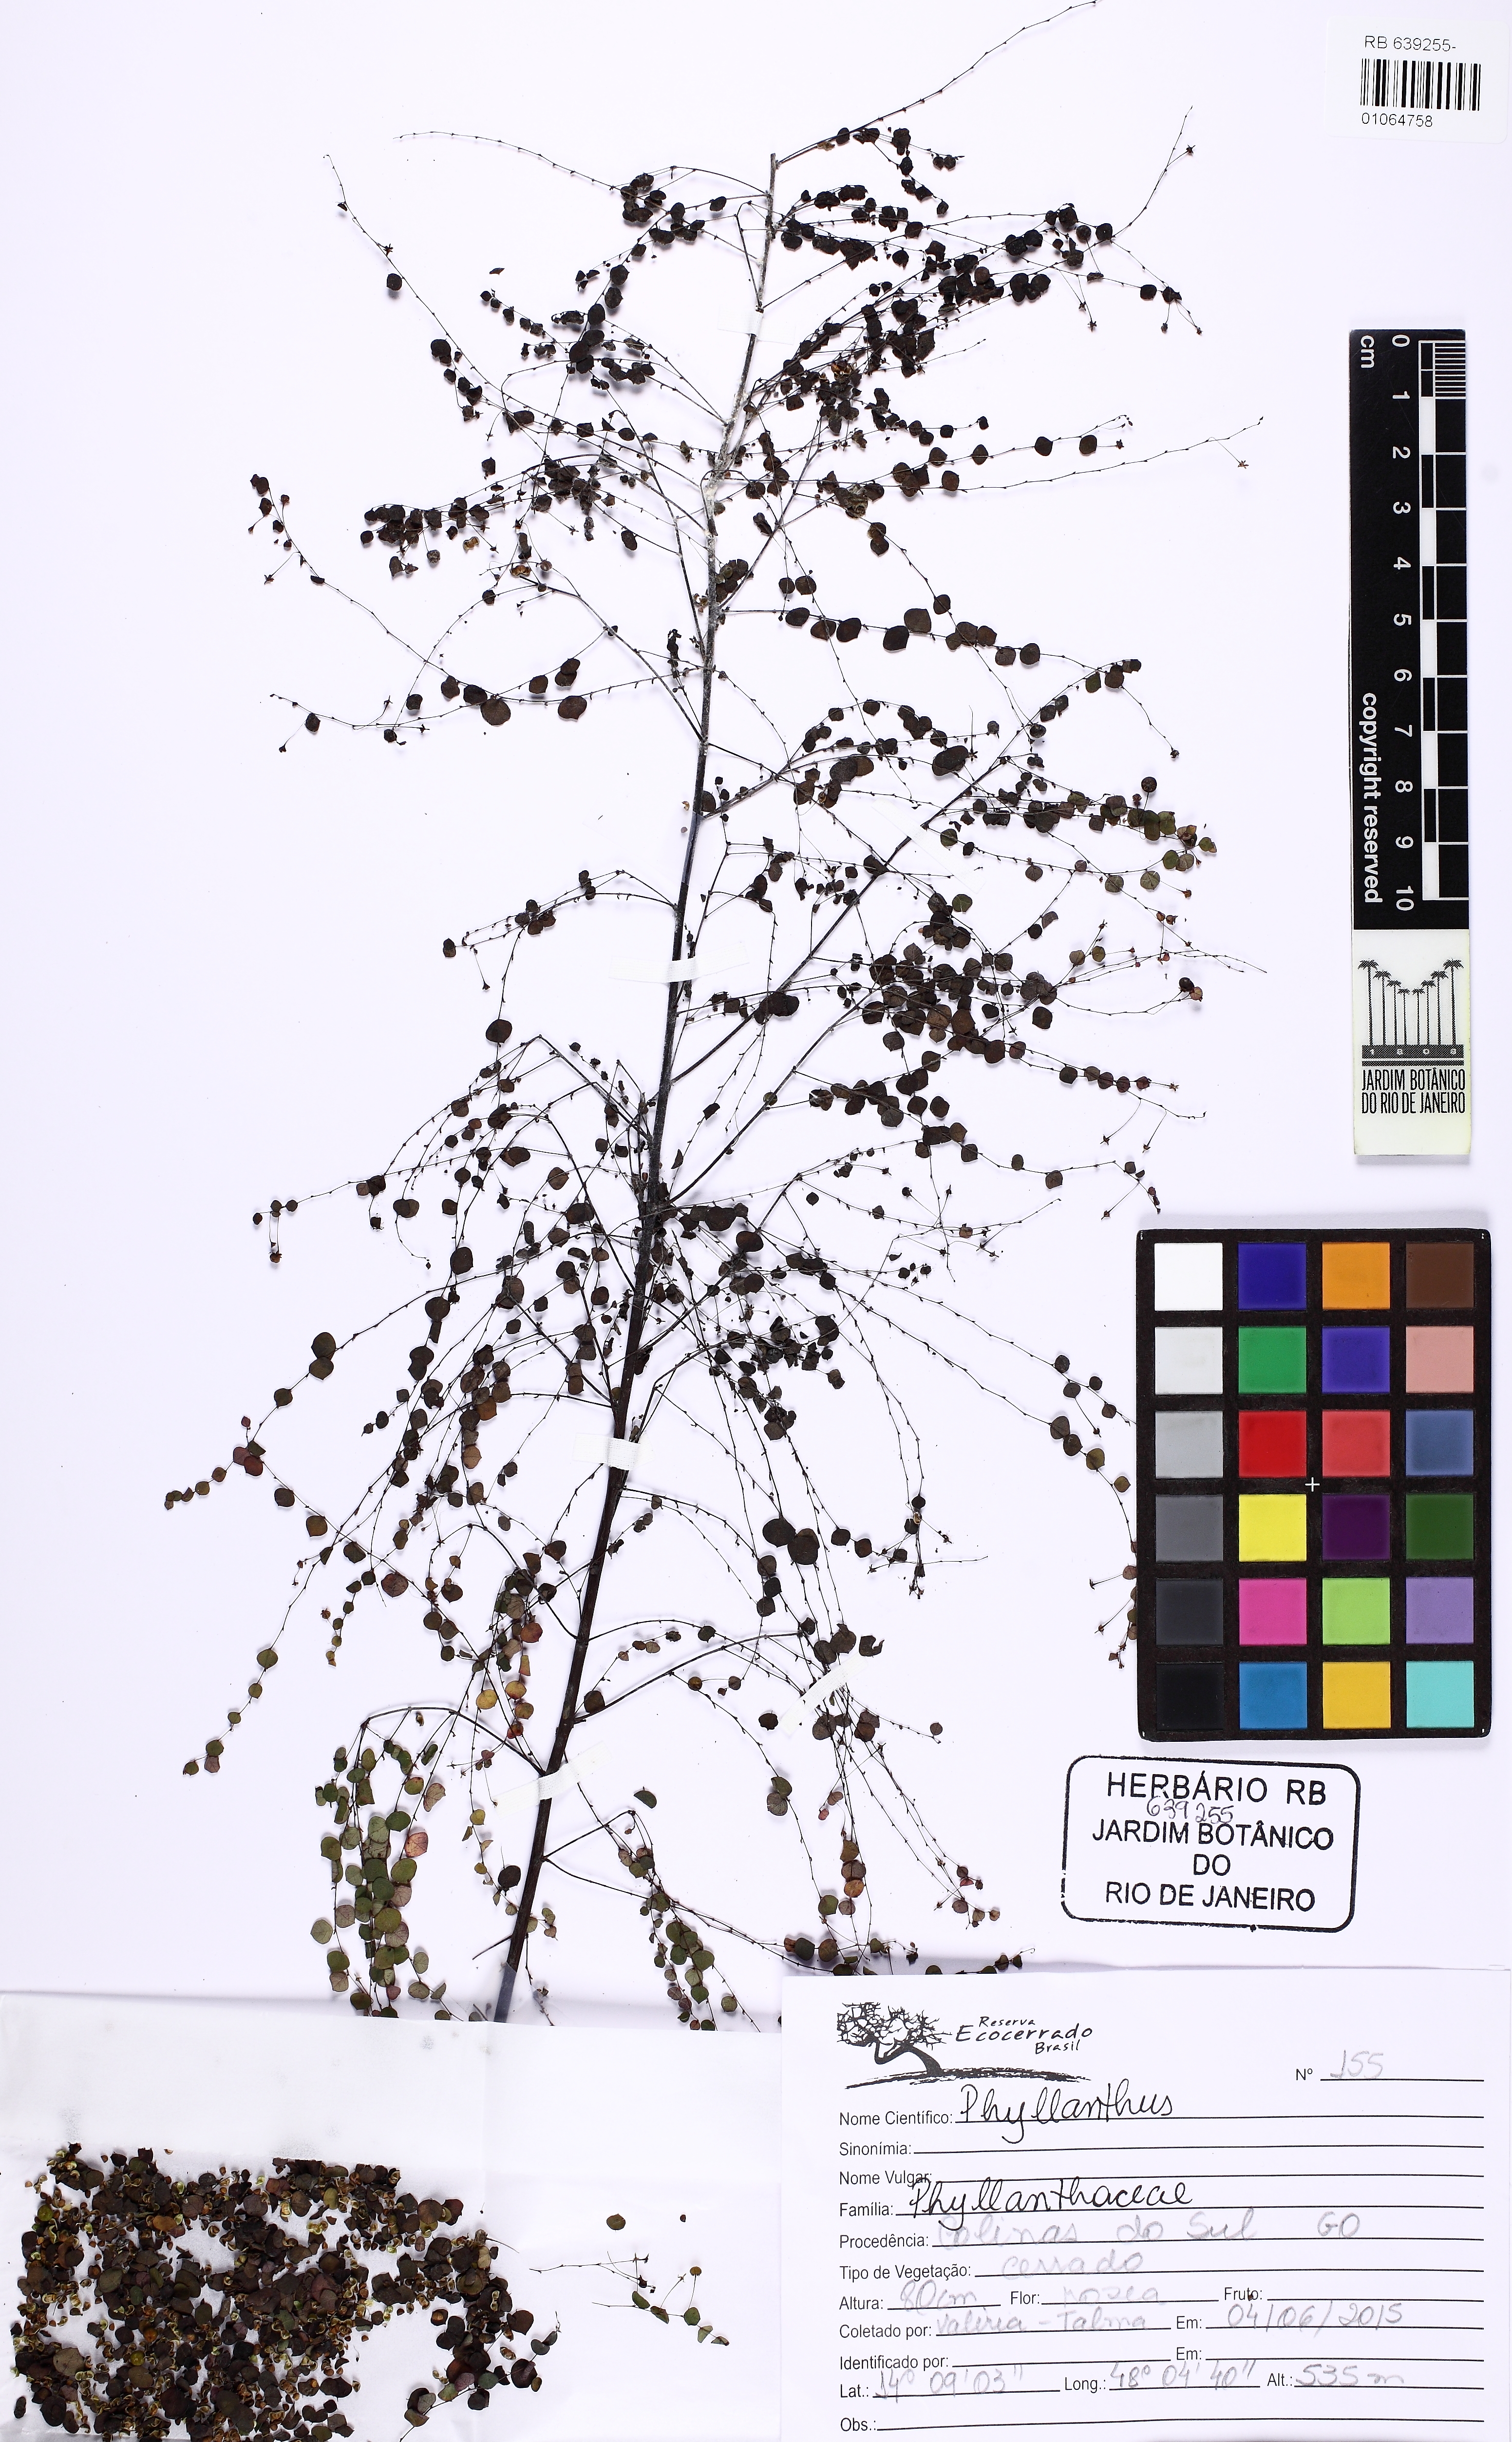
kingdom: Plantae
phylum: Tracheophyta
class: Magnoliopsida
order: Malpighiales
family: Phyllanthaceae
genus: Phyllanthus
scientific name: Phyllanthus orbiculatus
